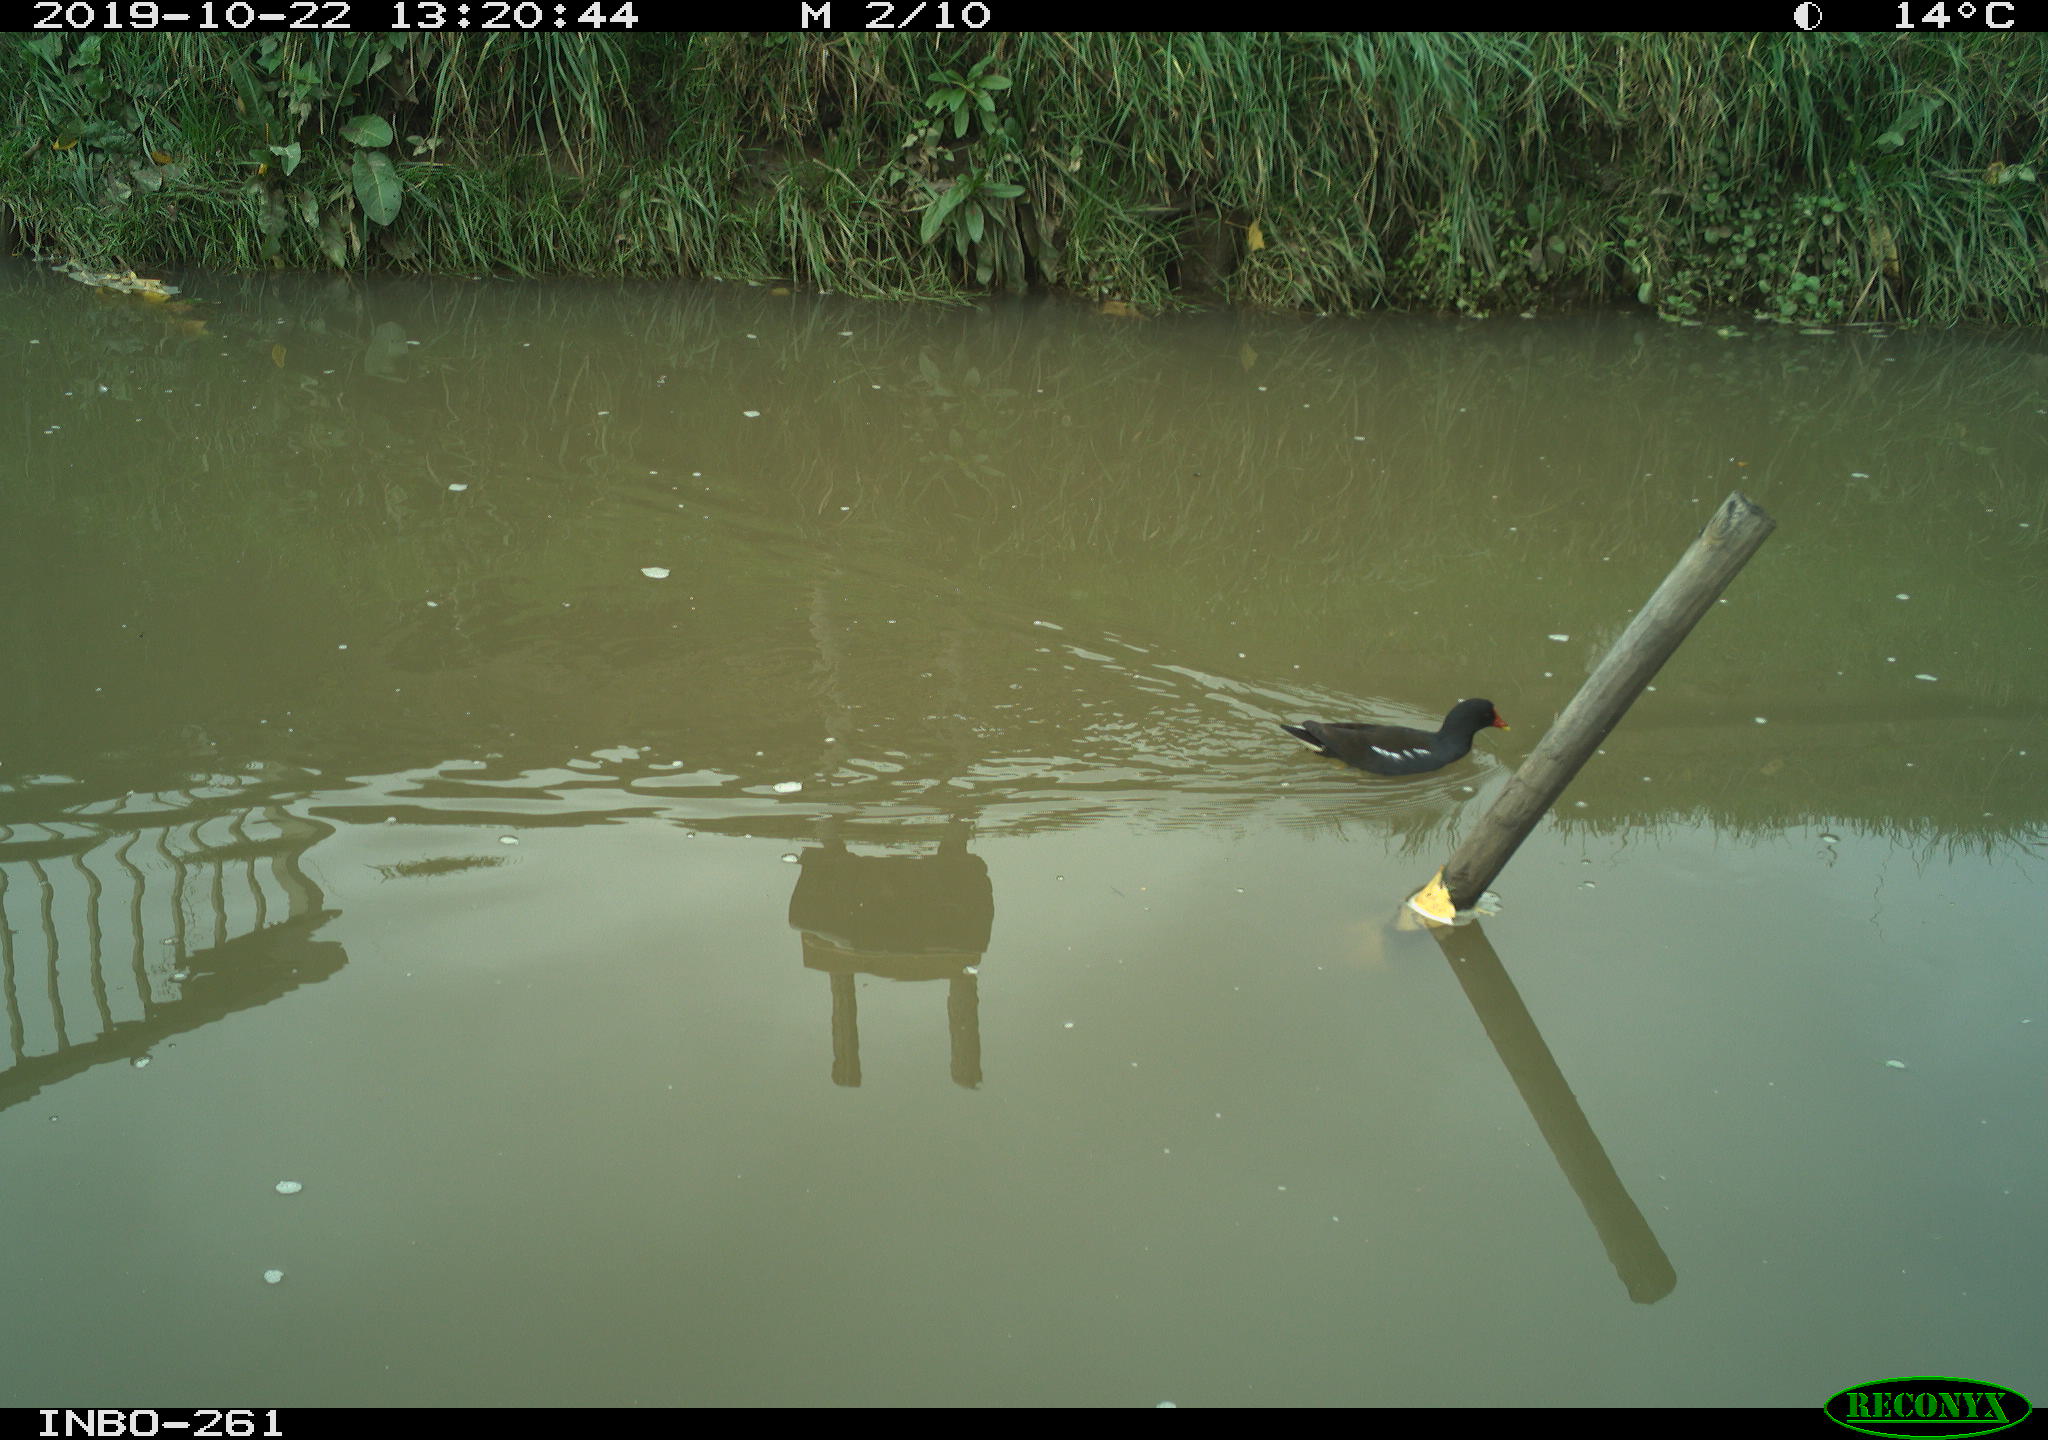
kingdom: Animalia
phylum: Chordata
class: Aves
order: Gruiformes
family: Rallidae
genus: Gallinula
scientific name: Gallinula chloropus
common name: Common moorhen
